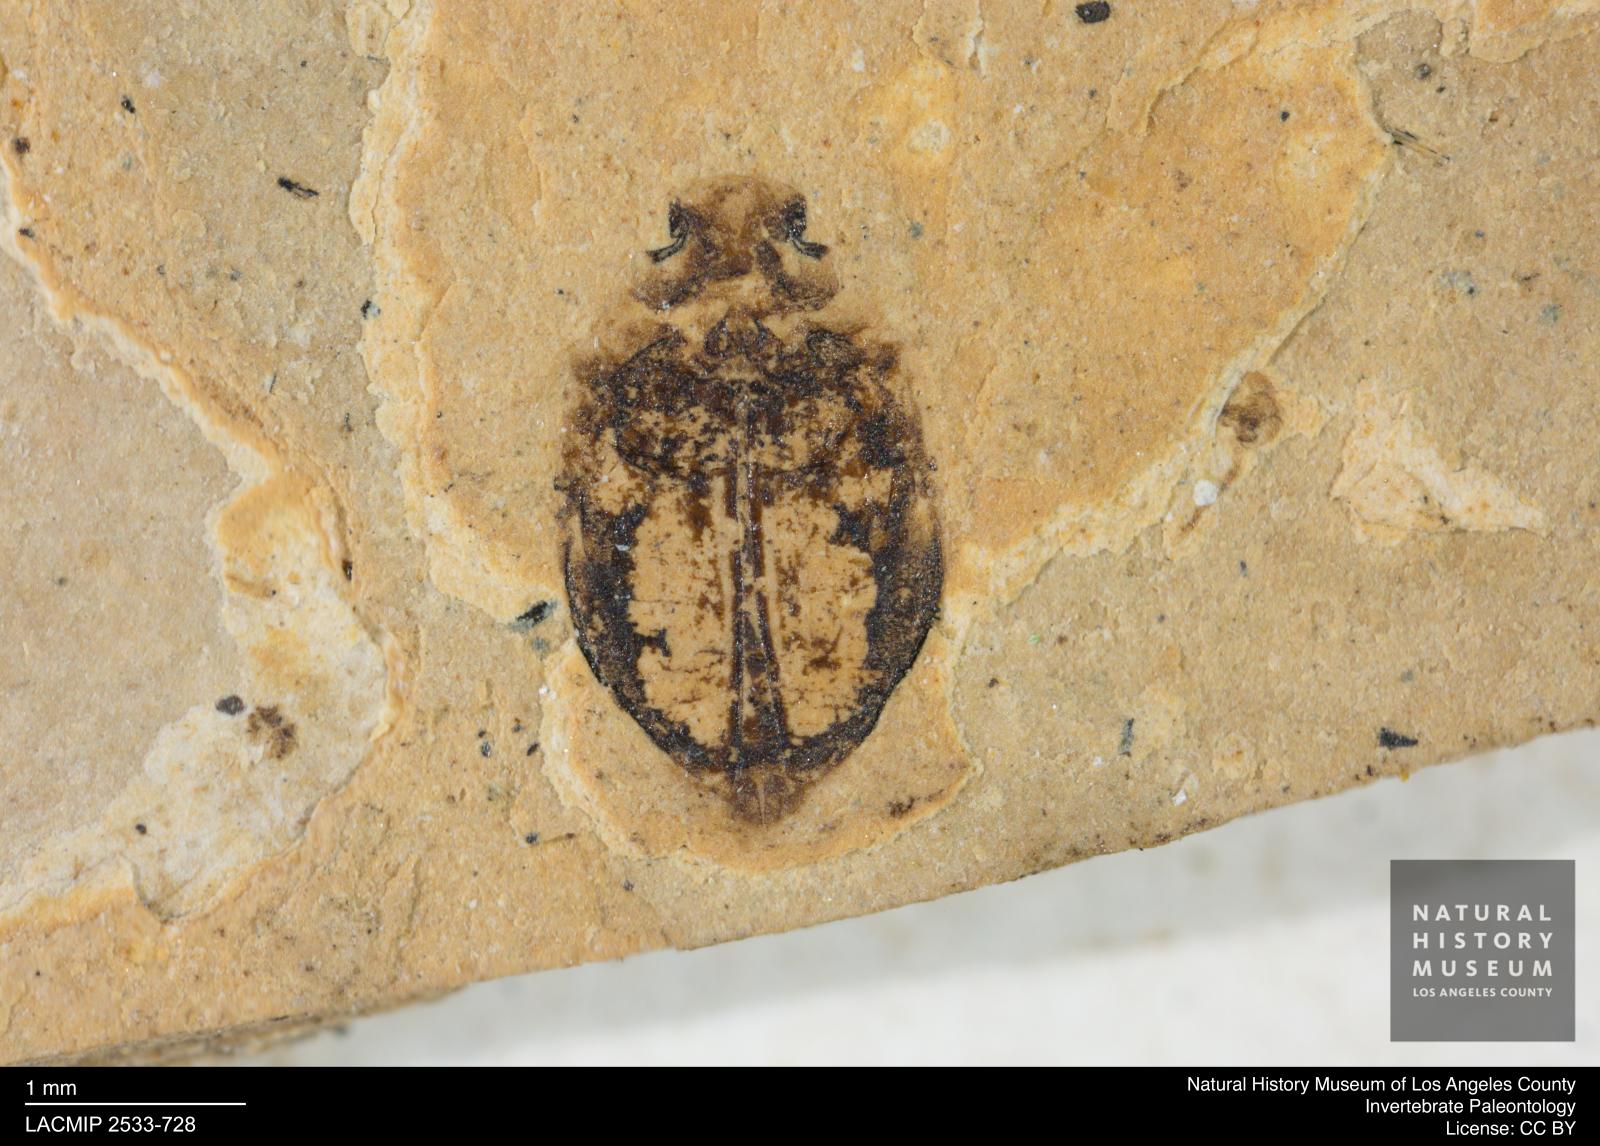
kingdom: Animalia
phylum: Arthropoda
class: Insecta
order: Coleoptera
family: Dytiscidae
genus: Oreodytes
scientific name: Oreodytes cryptolineatus
